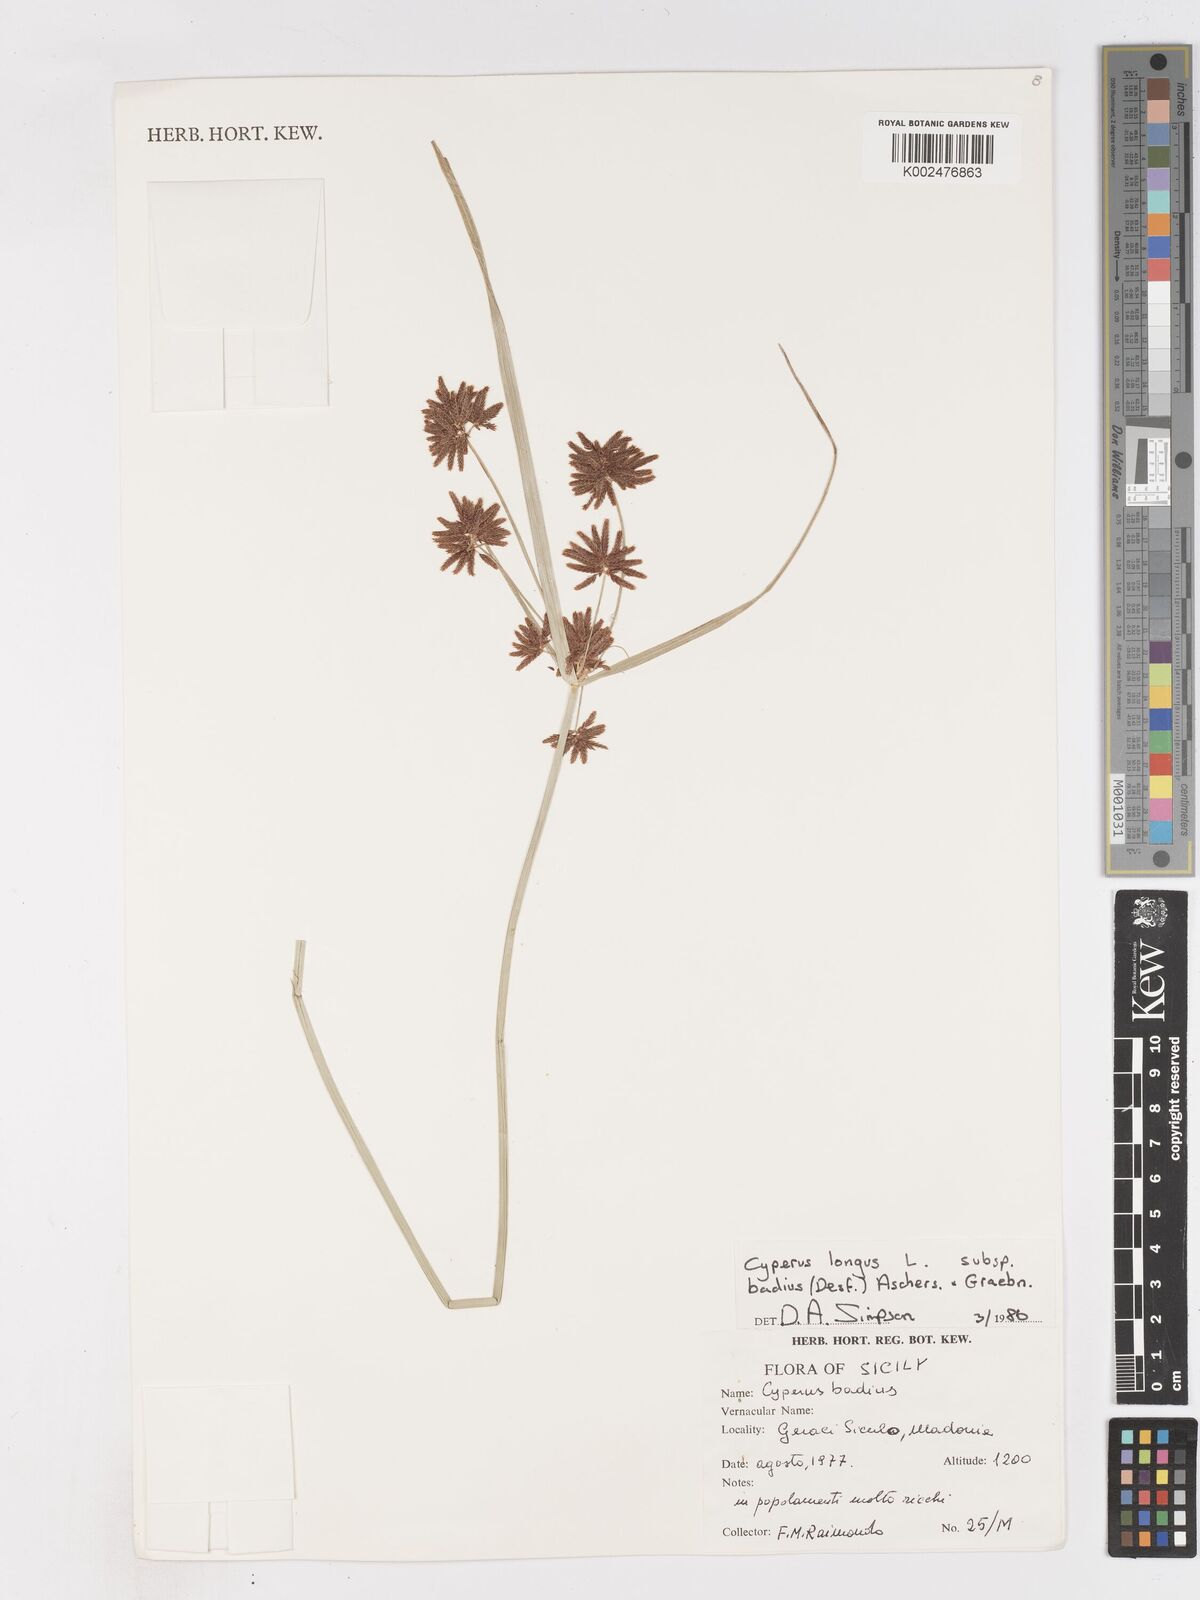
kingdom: Plantae
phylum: Tracheophyta
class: Liliopsida
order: Poales
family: Cyperaceae
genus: Cyperus
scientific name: Cyperus longus
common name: Galingale
